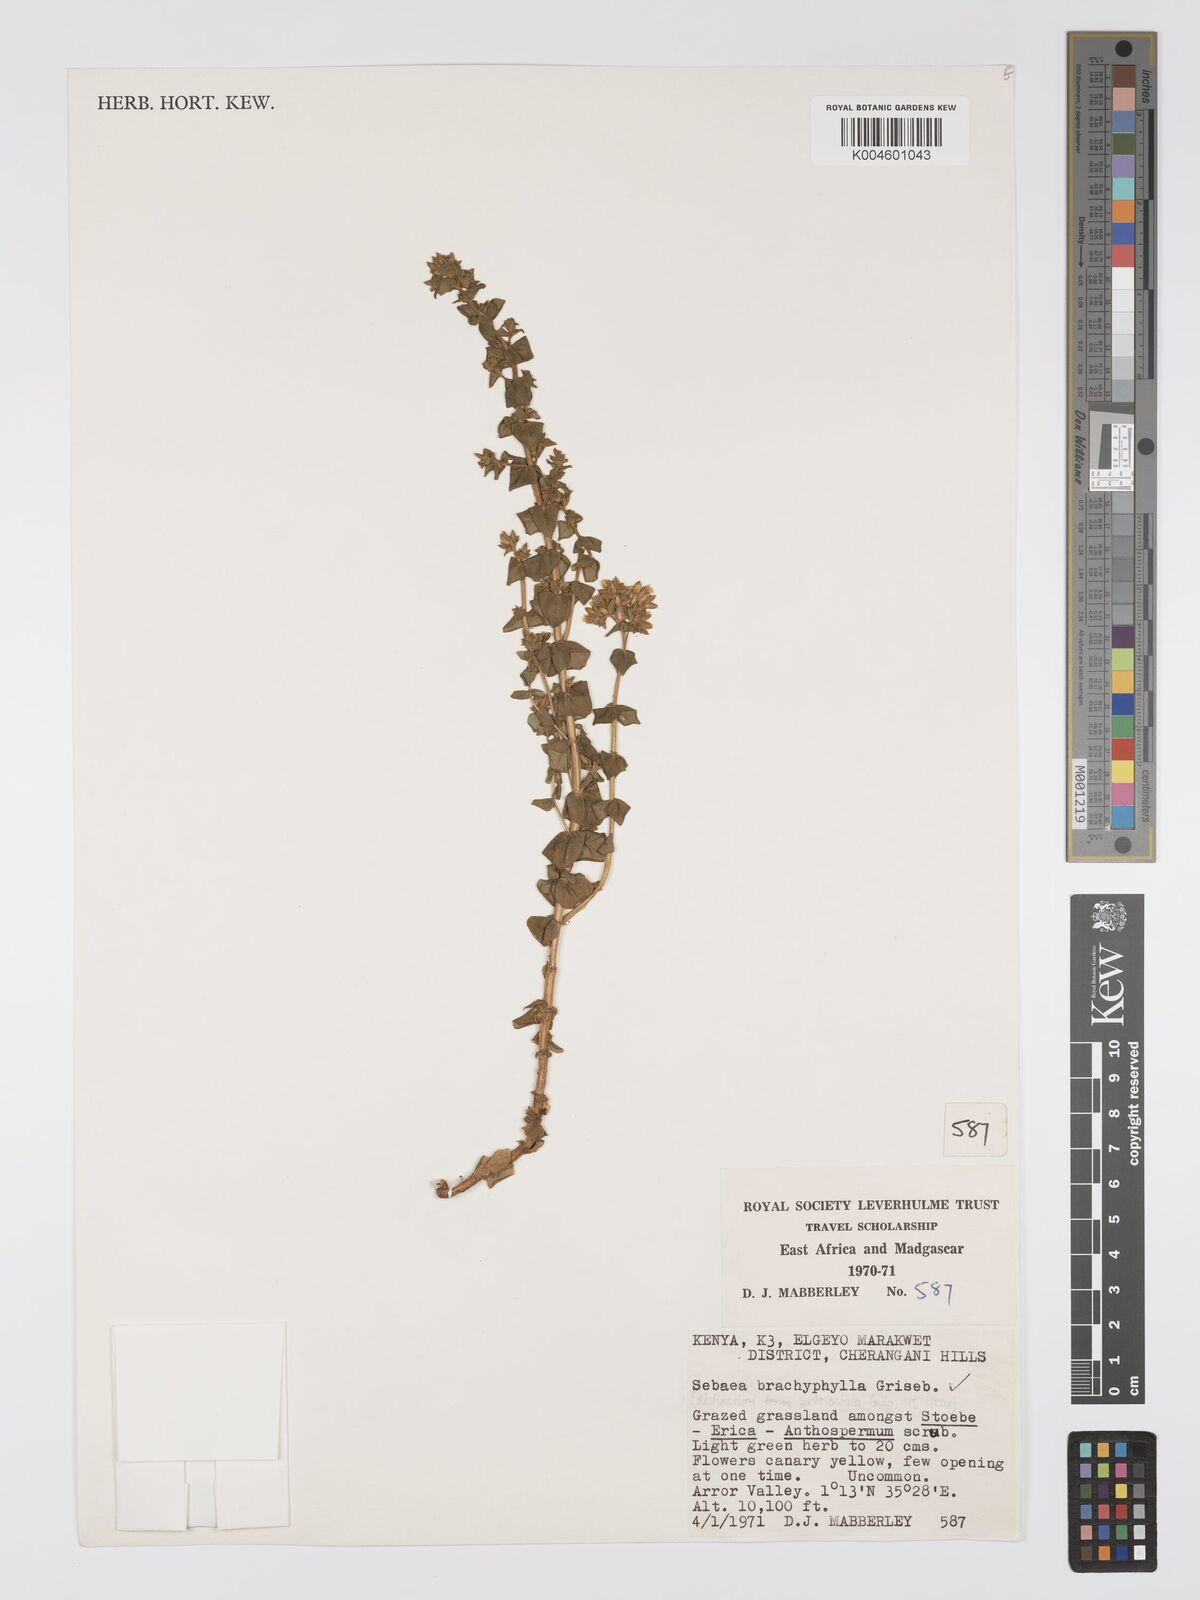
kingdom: Plantae
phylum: Tracheophyta
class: Magnoliopsida
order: Gentianales
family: Gentianaceae
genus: Sebaea
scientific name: Sebaea brachyphylla
